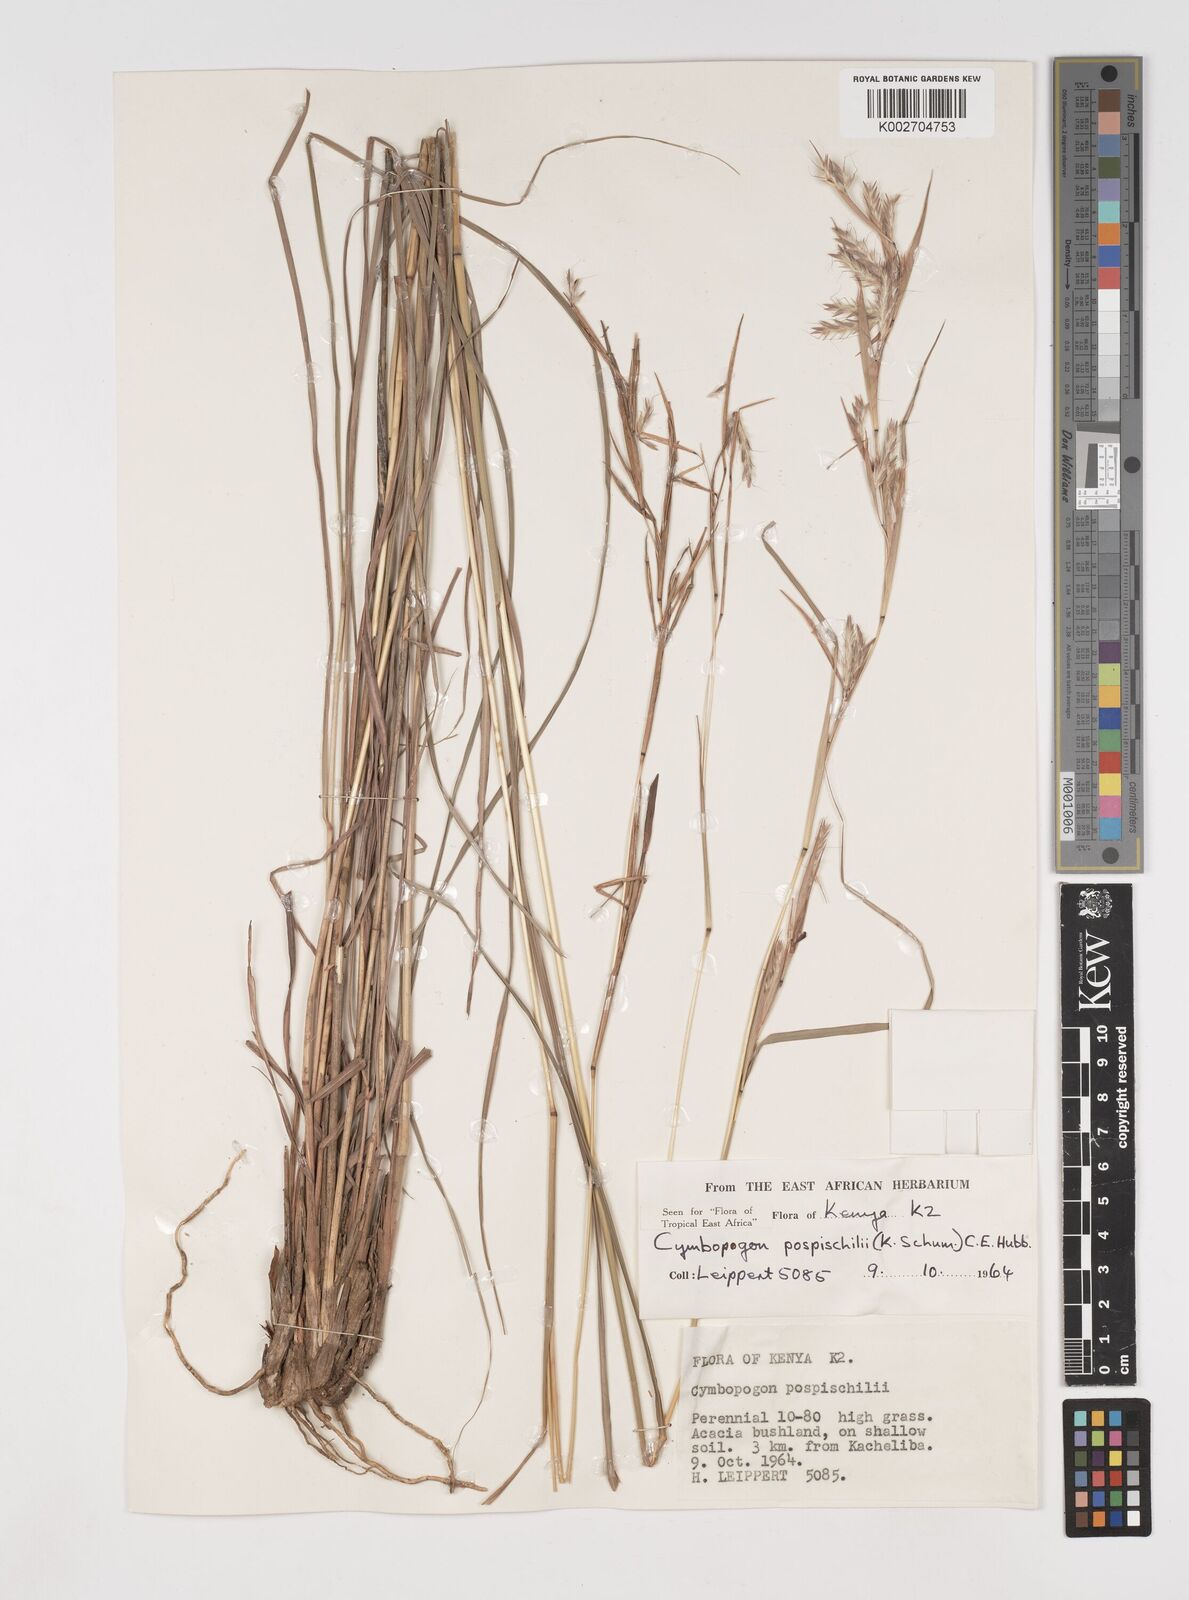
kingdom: Plantae
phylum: Tracheophyta
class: Liliopsida
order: Poales
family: Poaceae
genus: Cymbopogon
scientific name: Cymbopogon pospischilii
